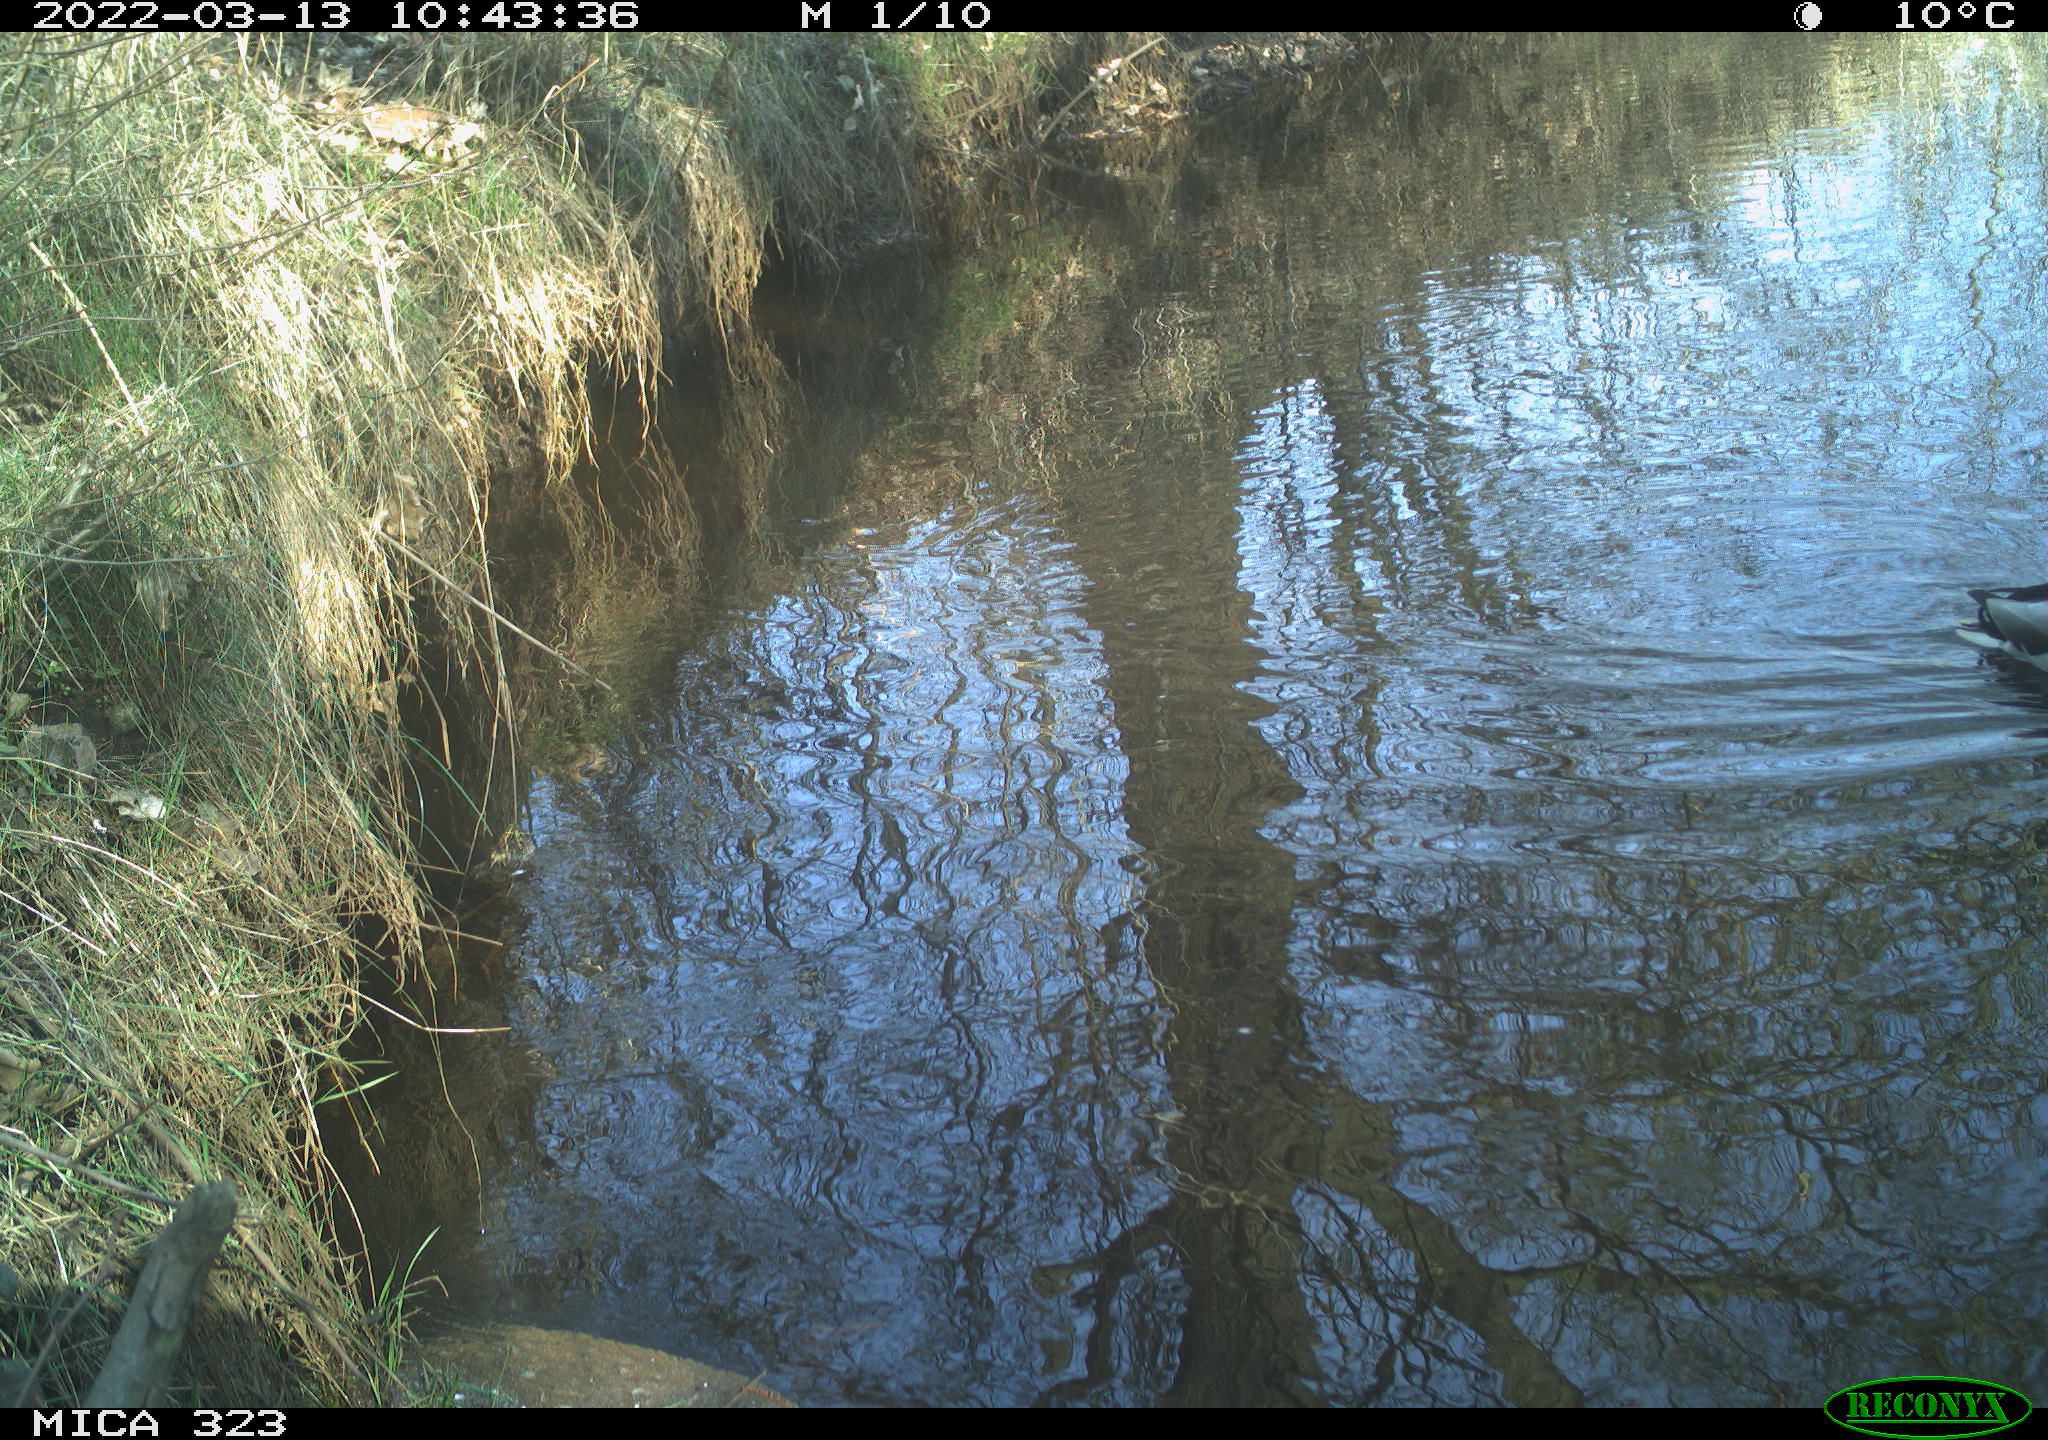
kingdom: Animalia
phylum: Chordata
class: Aves
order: Anseriformes
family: Anatidae
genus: Anas
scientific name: Anas
